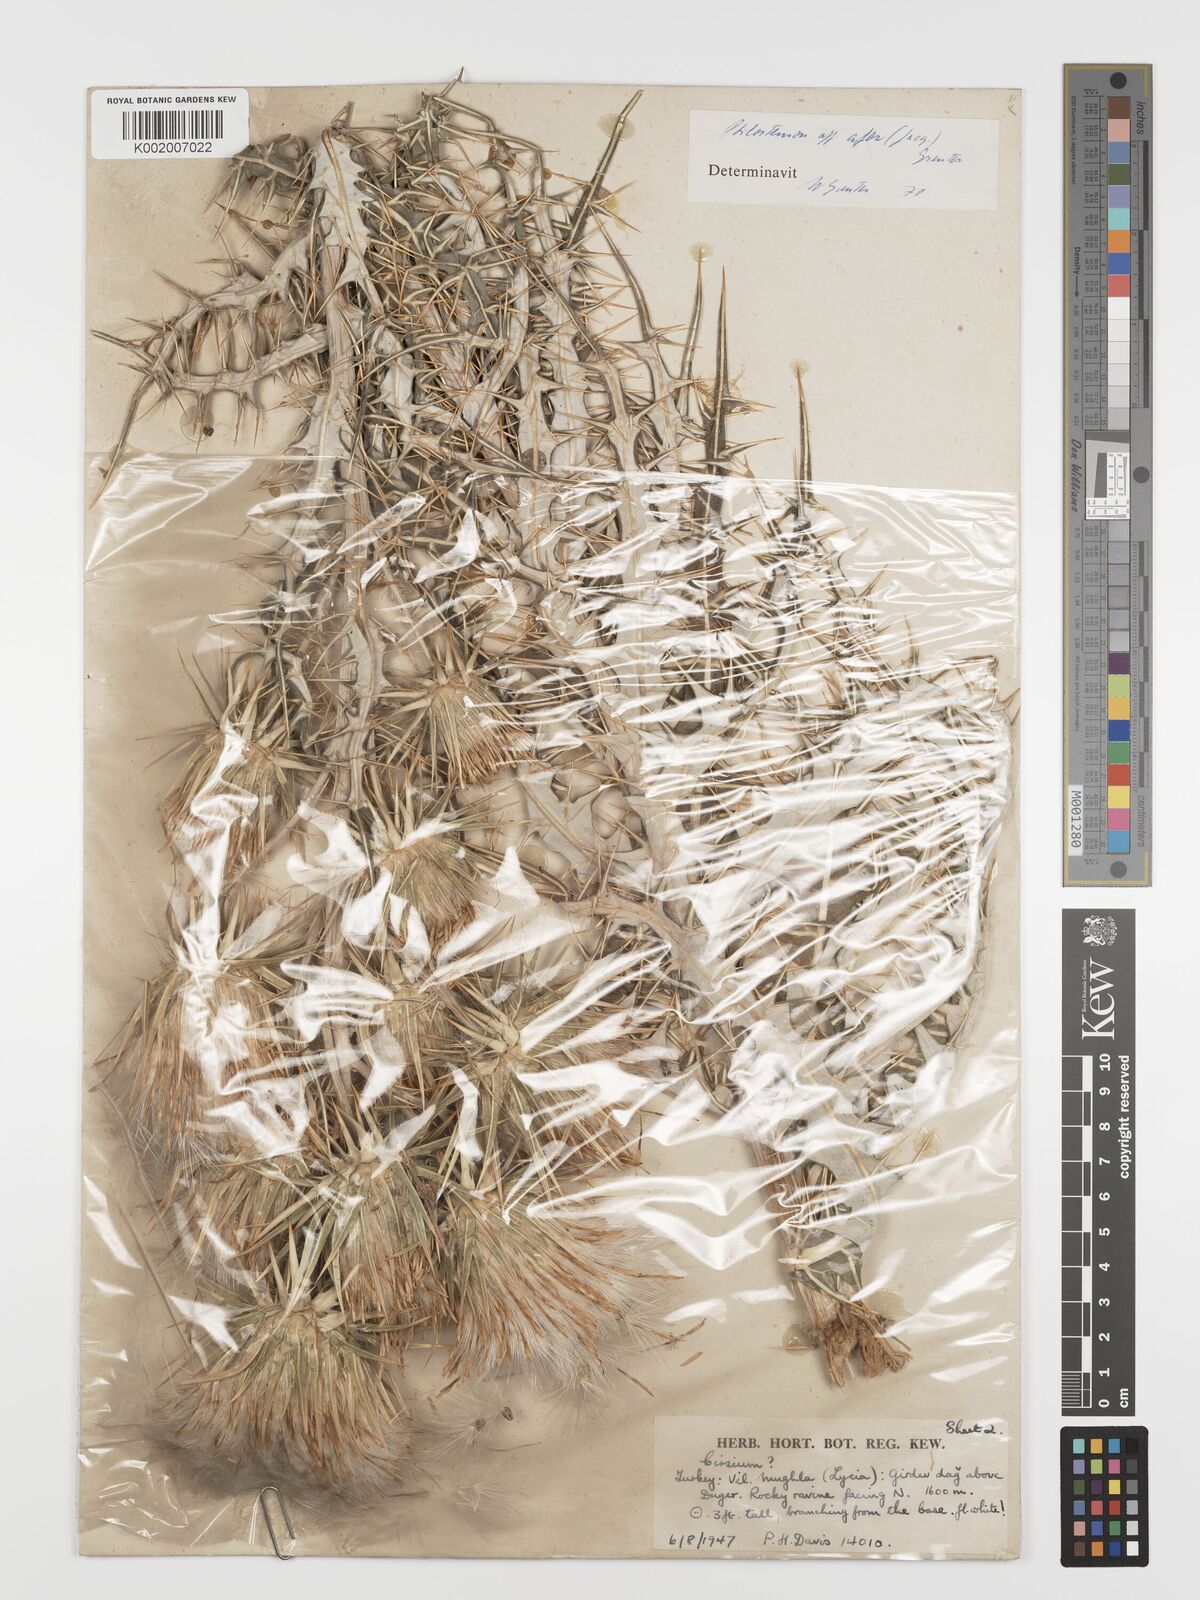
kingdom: Plantae
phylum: Tracheophyta
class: Magnoliopsida
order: Asterales
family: Asteraceae
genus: Ptilostemon
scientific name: Ptilostemon afer
